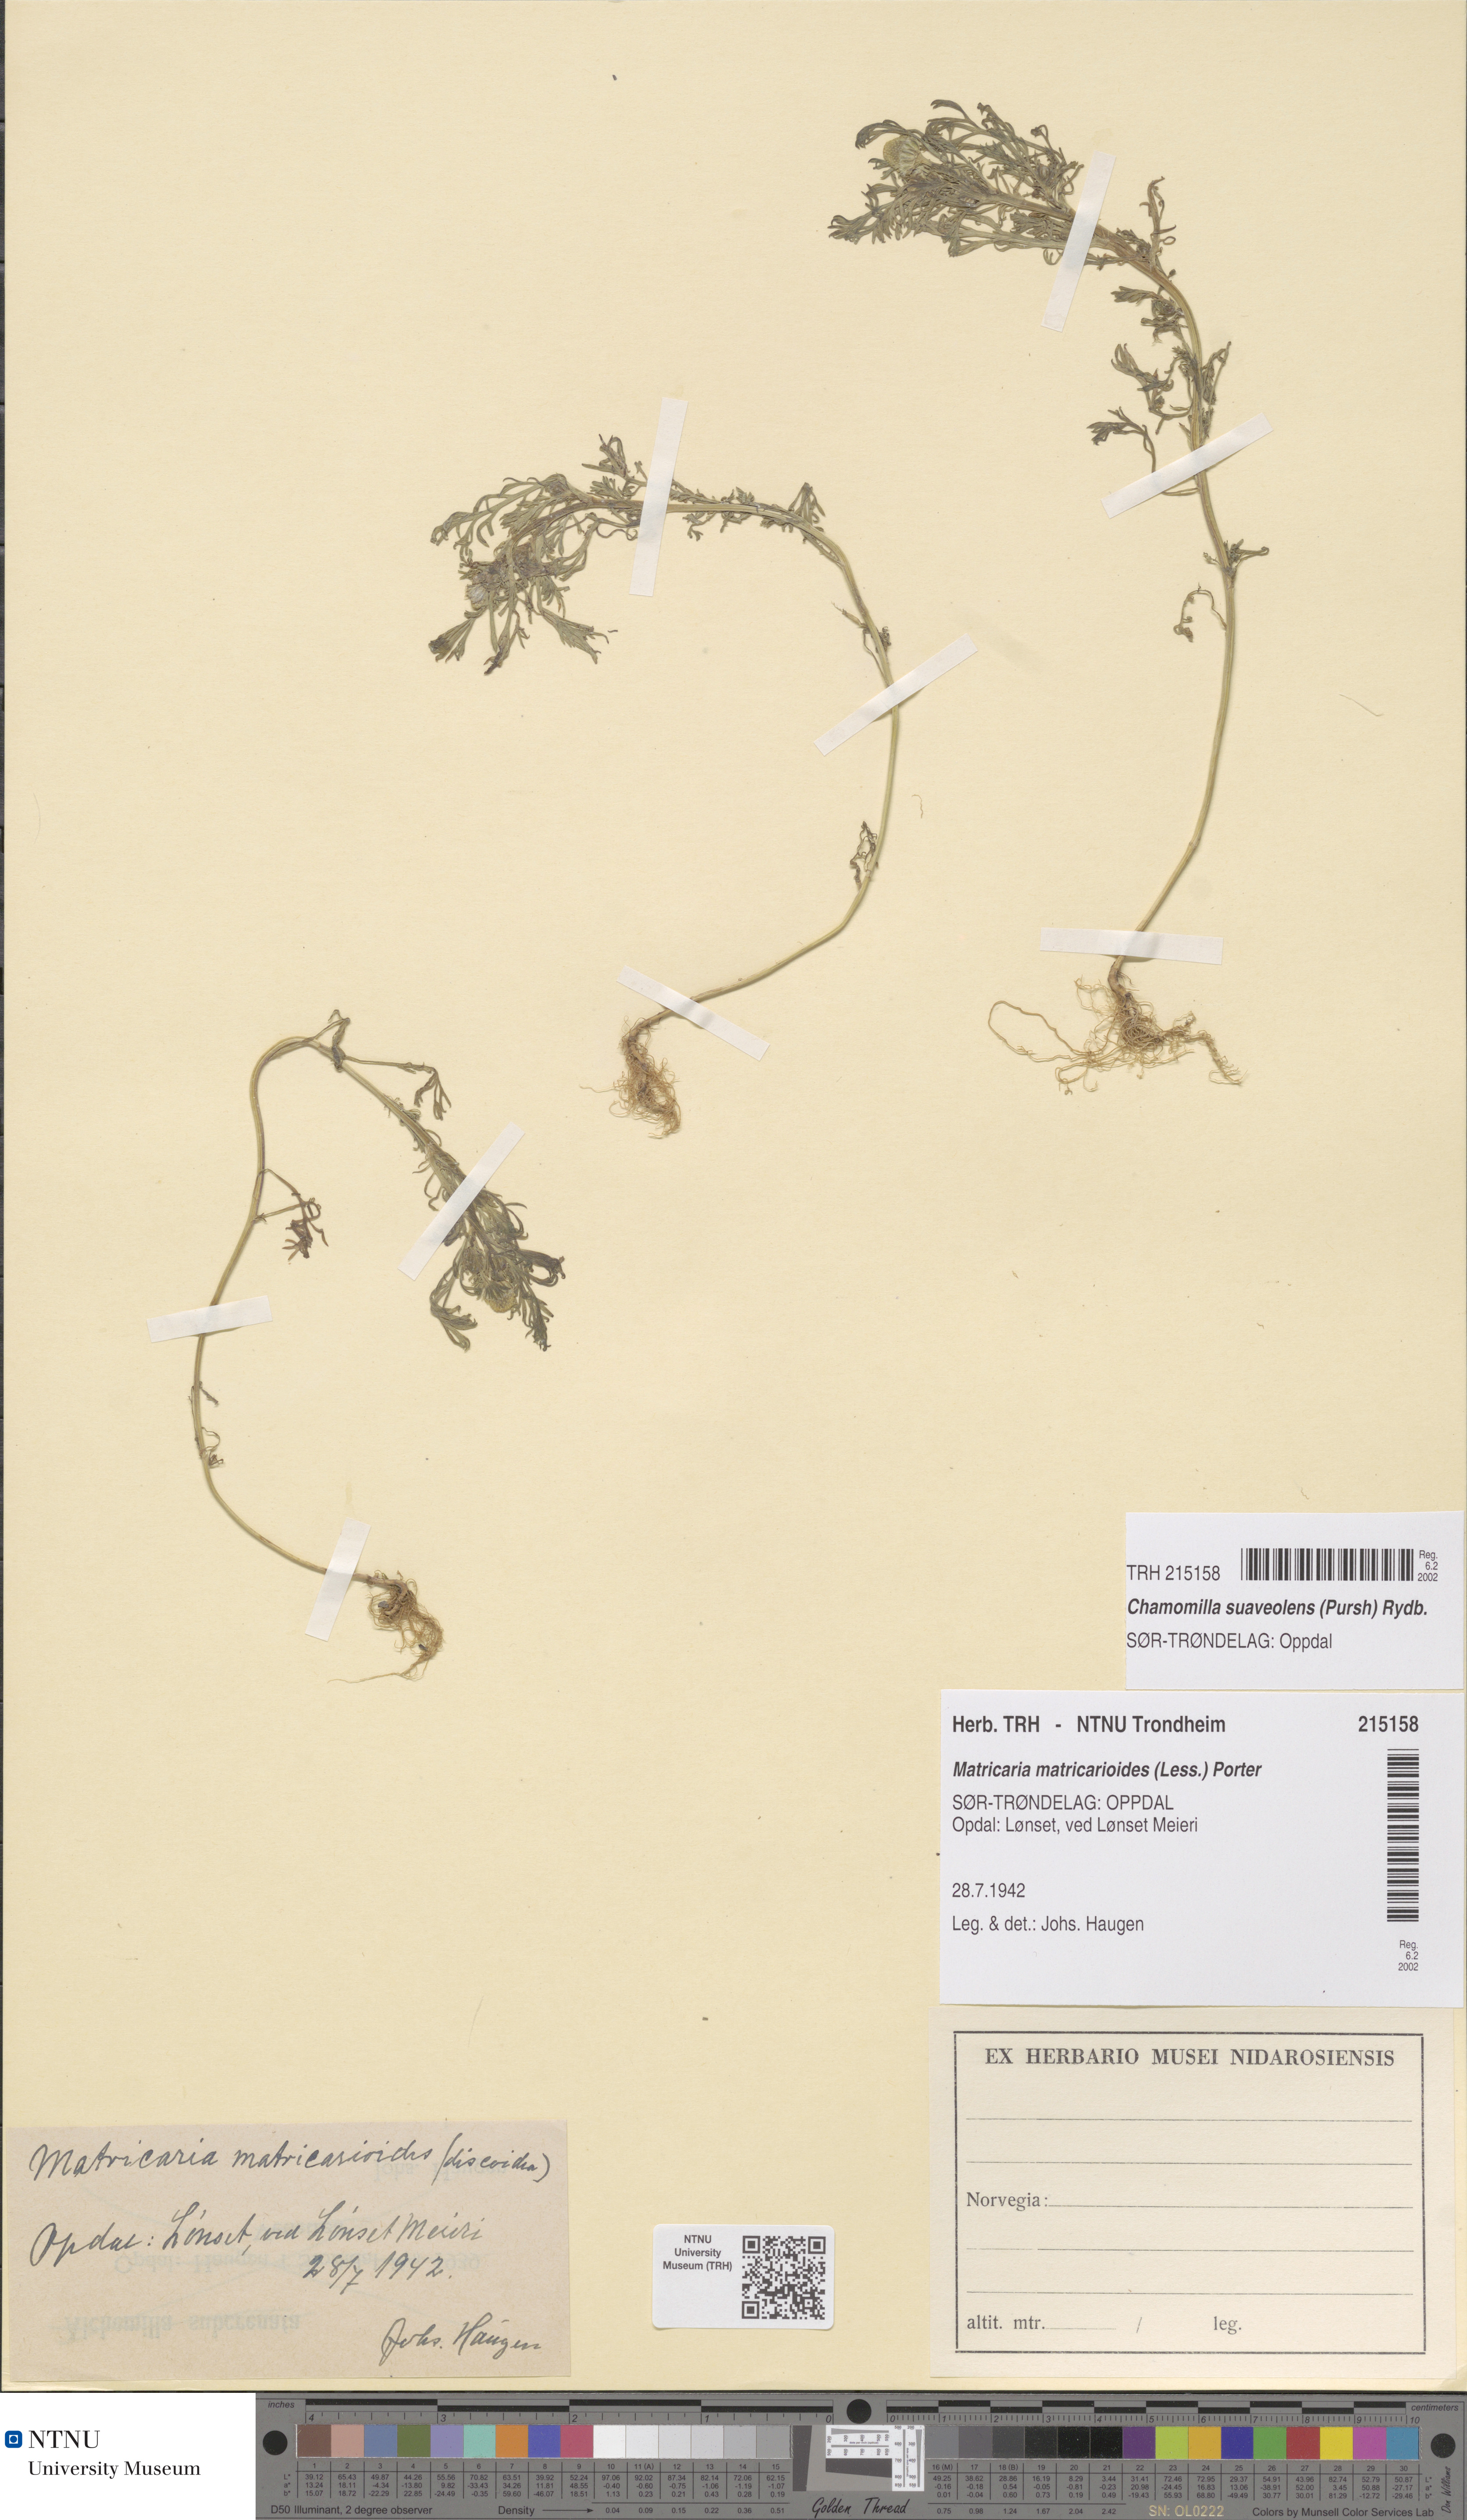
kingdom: Plantae
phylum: Tracheophyta
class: Magnoliopsida
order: Asterales
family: Asteraceae
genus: Matricaria
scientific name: Matricaria discoidea
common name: Disc mayweed
